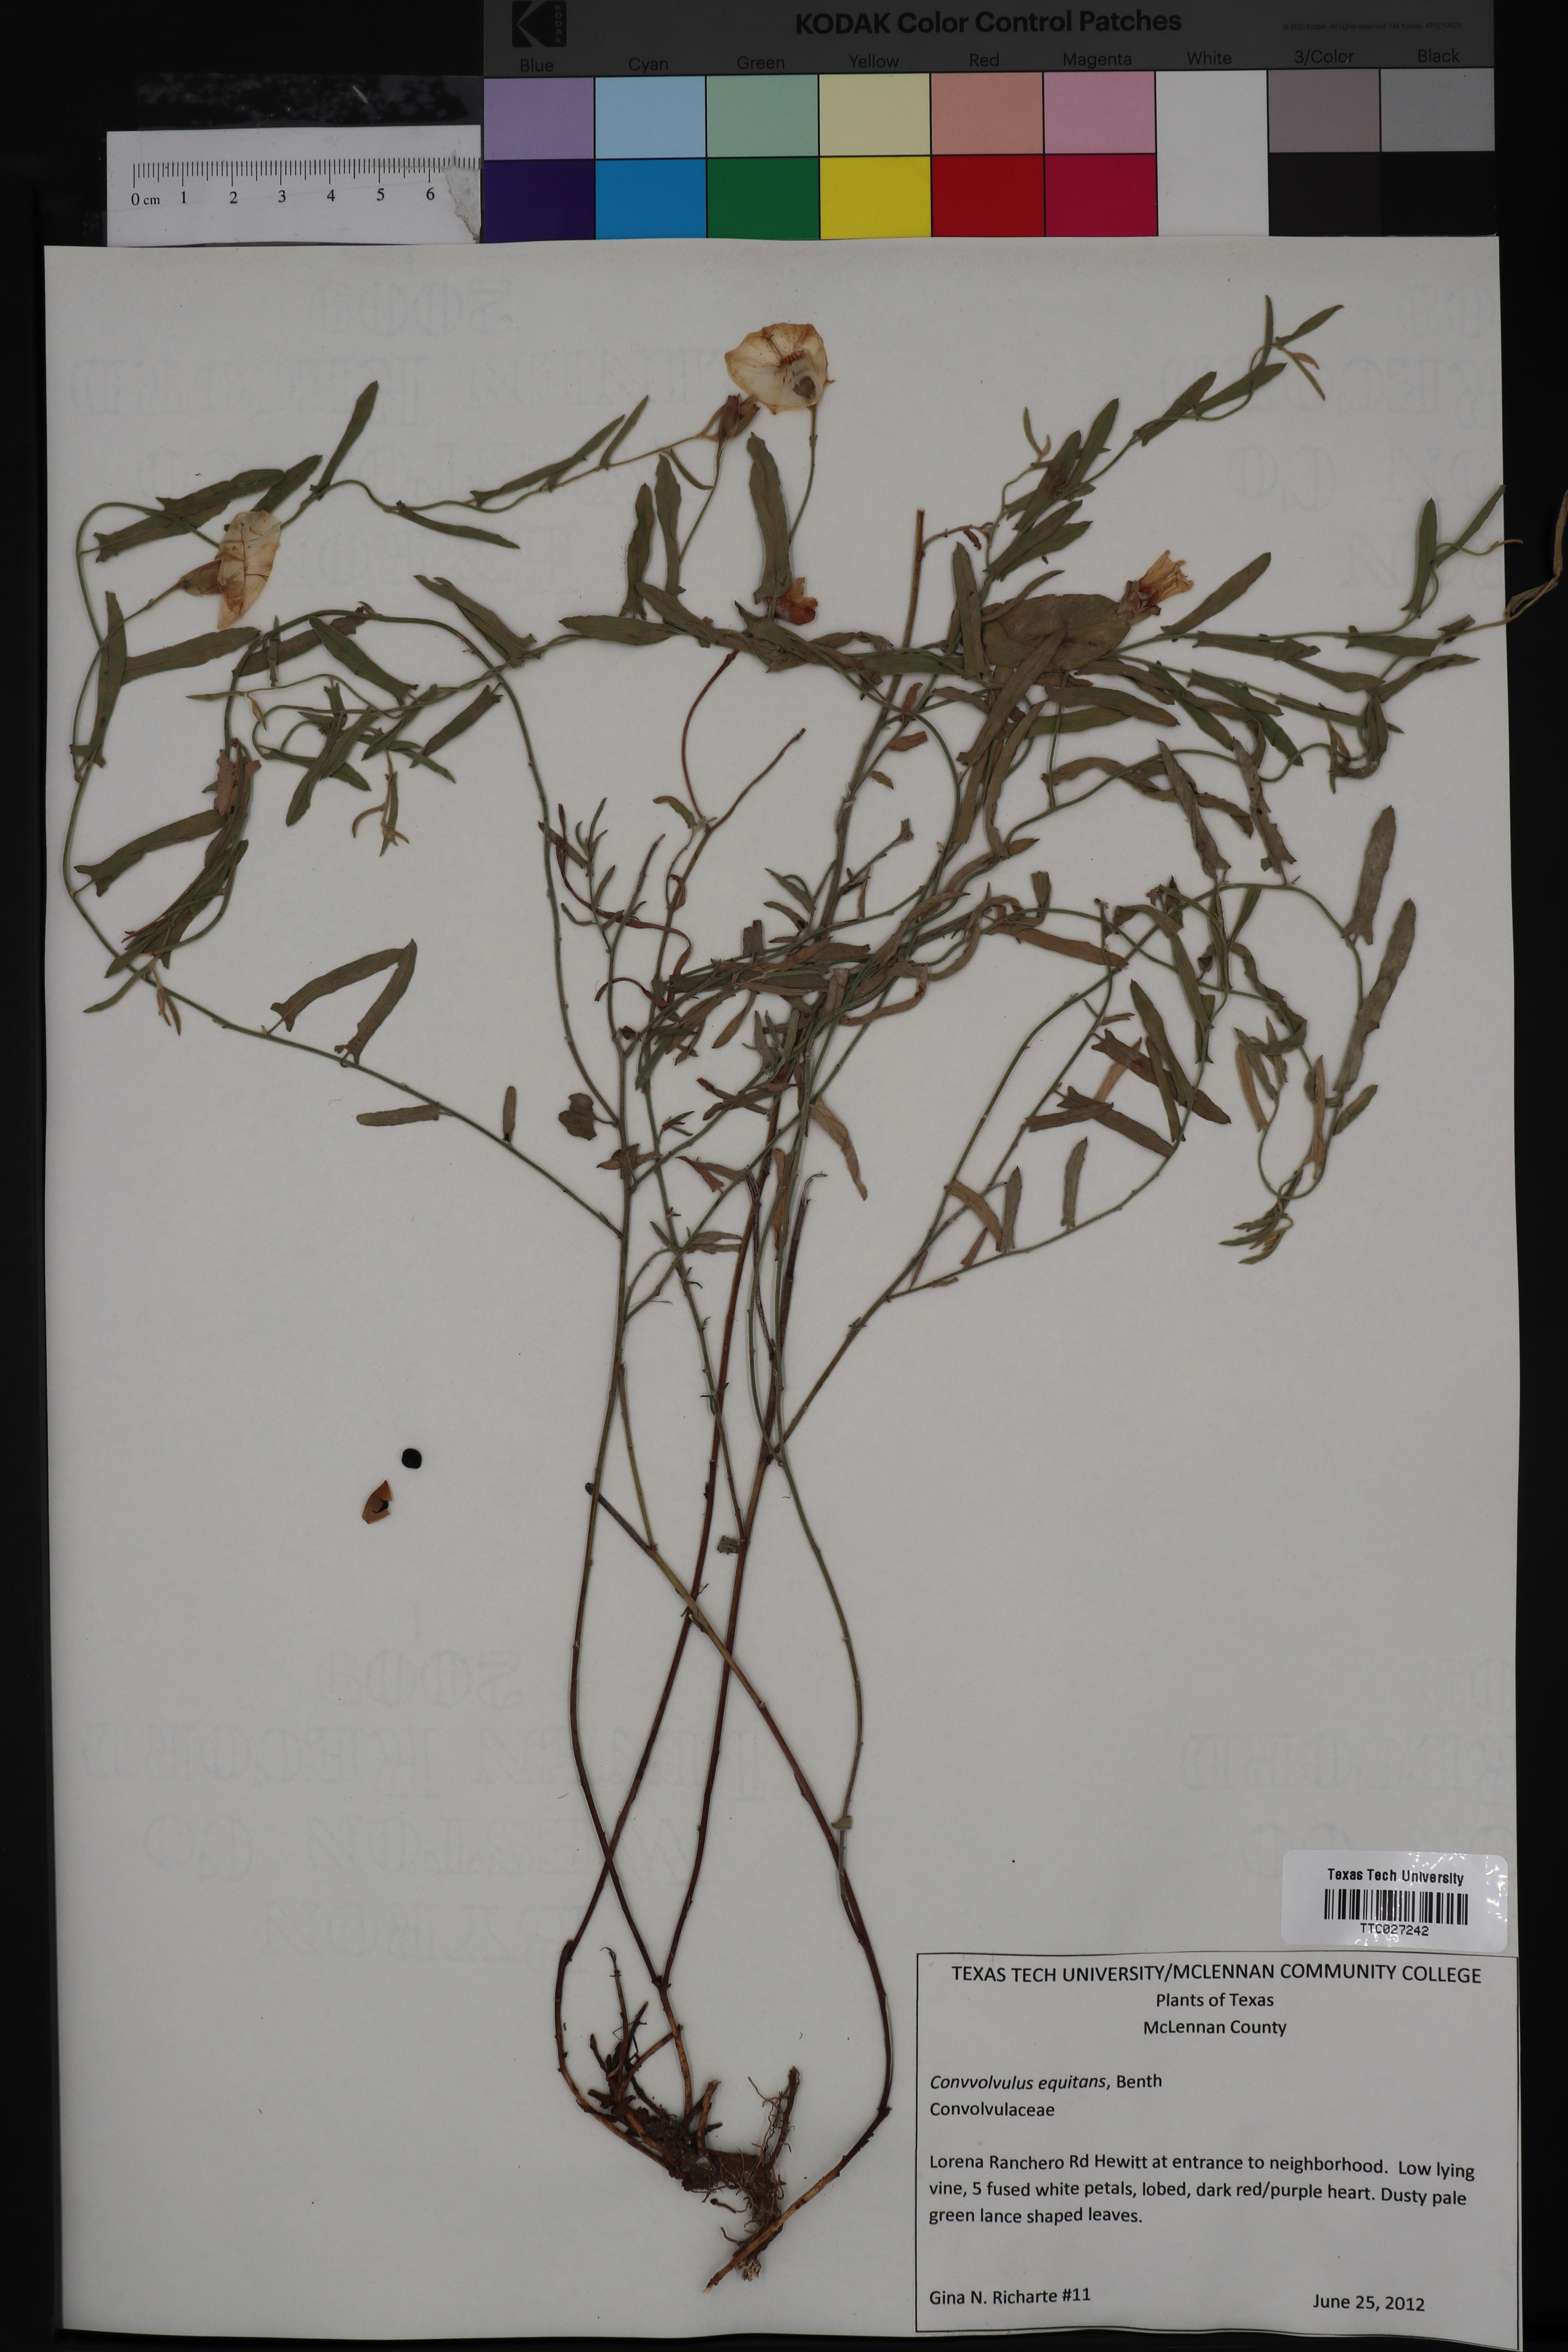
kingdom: Plantae
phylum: Tracheophyta
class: Magnoliopsida
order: Solanales
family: Convolvulaceae
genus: Convolvulus
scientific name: Convolvulus equitans
